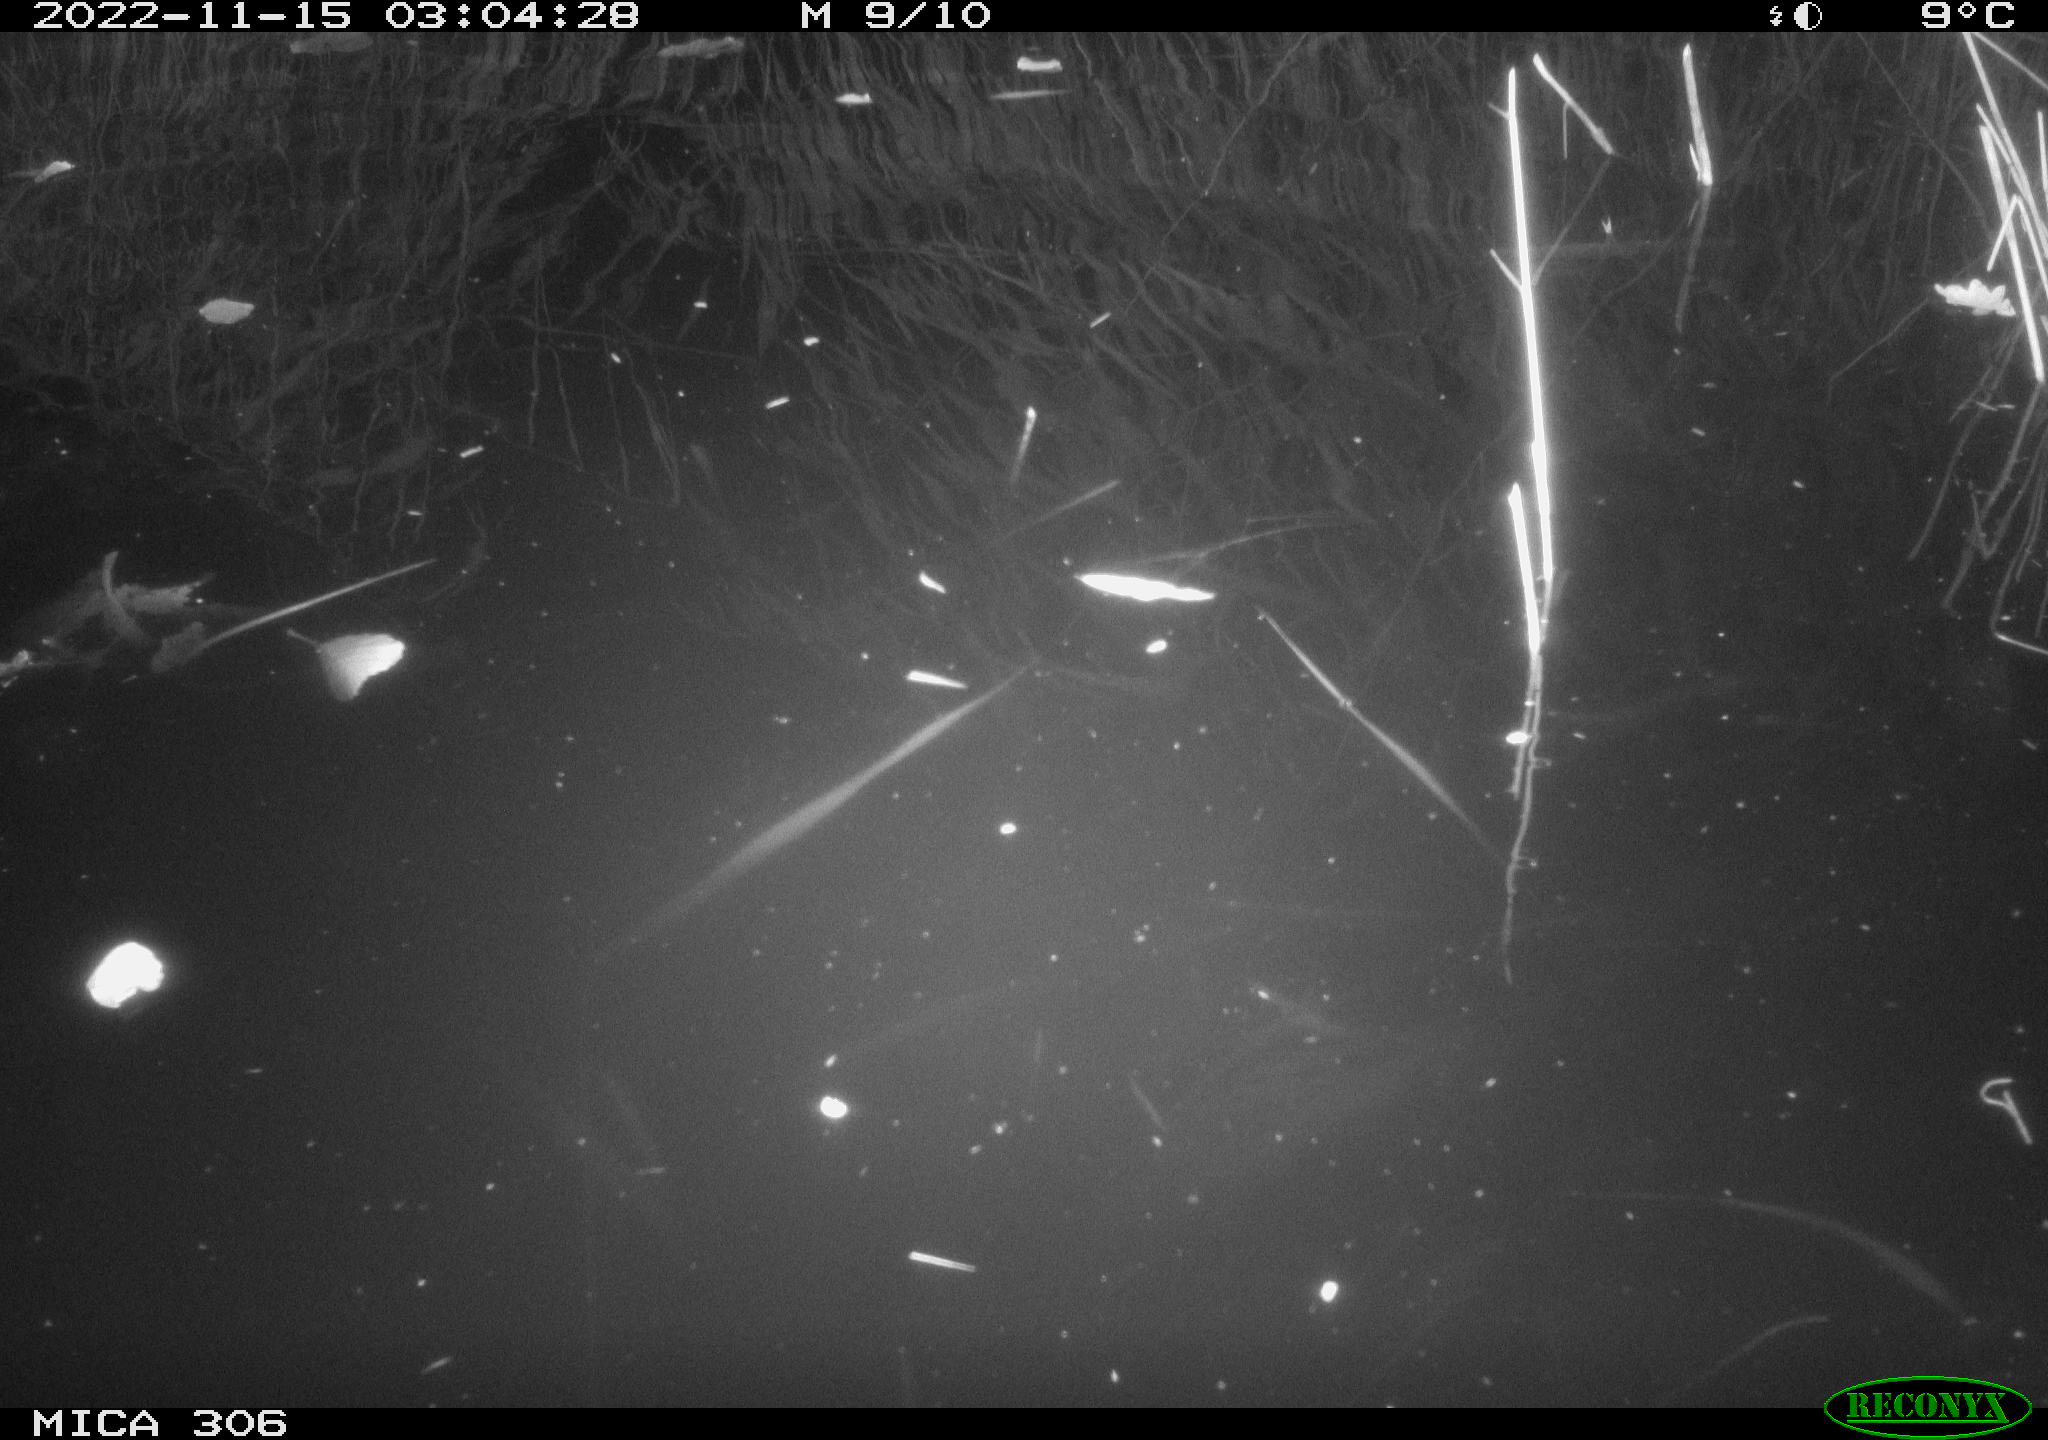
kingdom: Animalia
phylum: Chordata
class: Mammalia
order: Rodentia
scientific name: Rodentia
